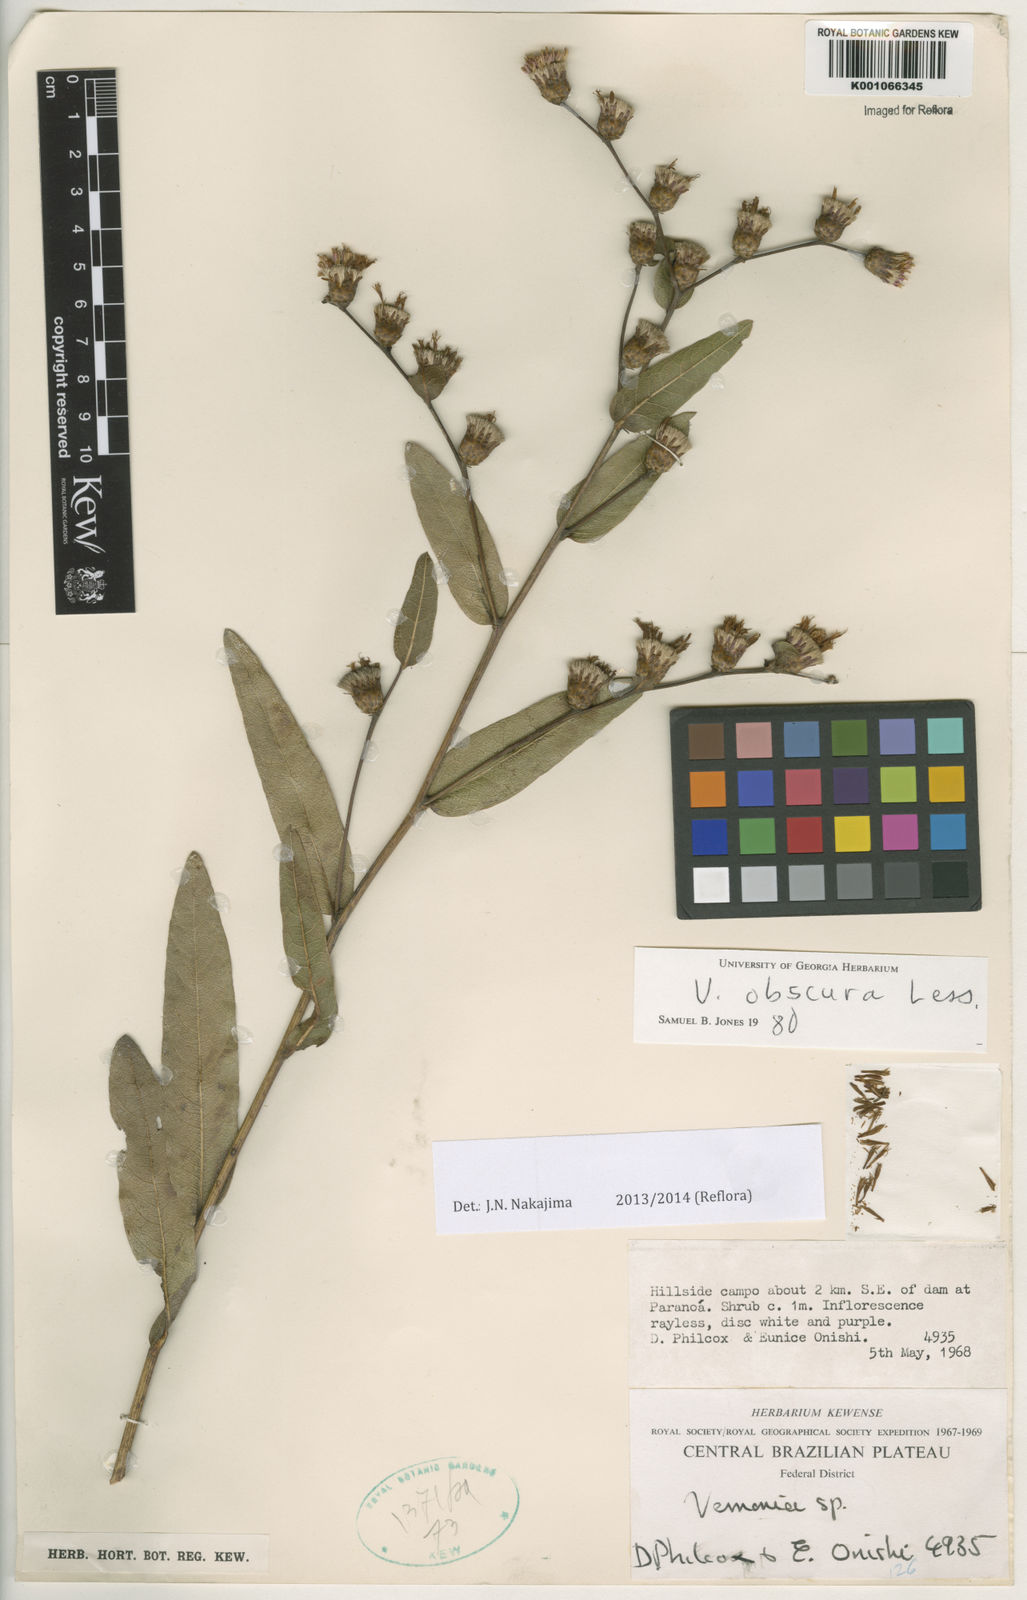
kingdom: Plantae
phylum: Tracheophyta
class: Magnoliopsida
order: Asterales
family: Asteraceae
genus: Lessingianthus
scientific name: Lessingianthus obtusatus
